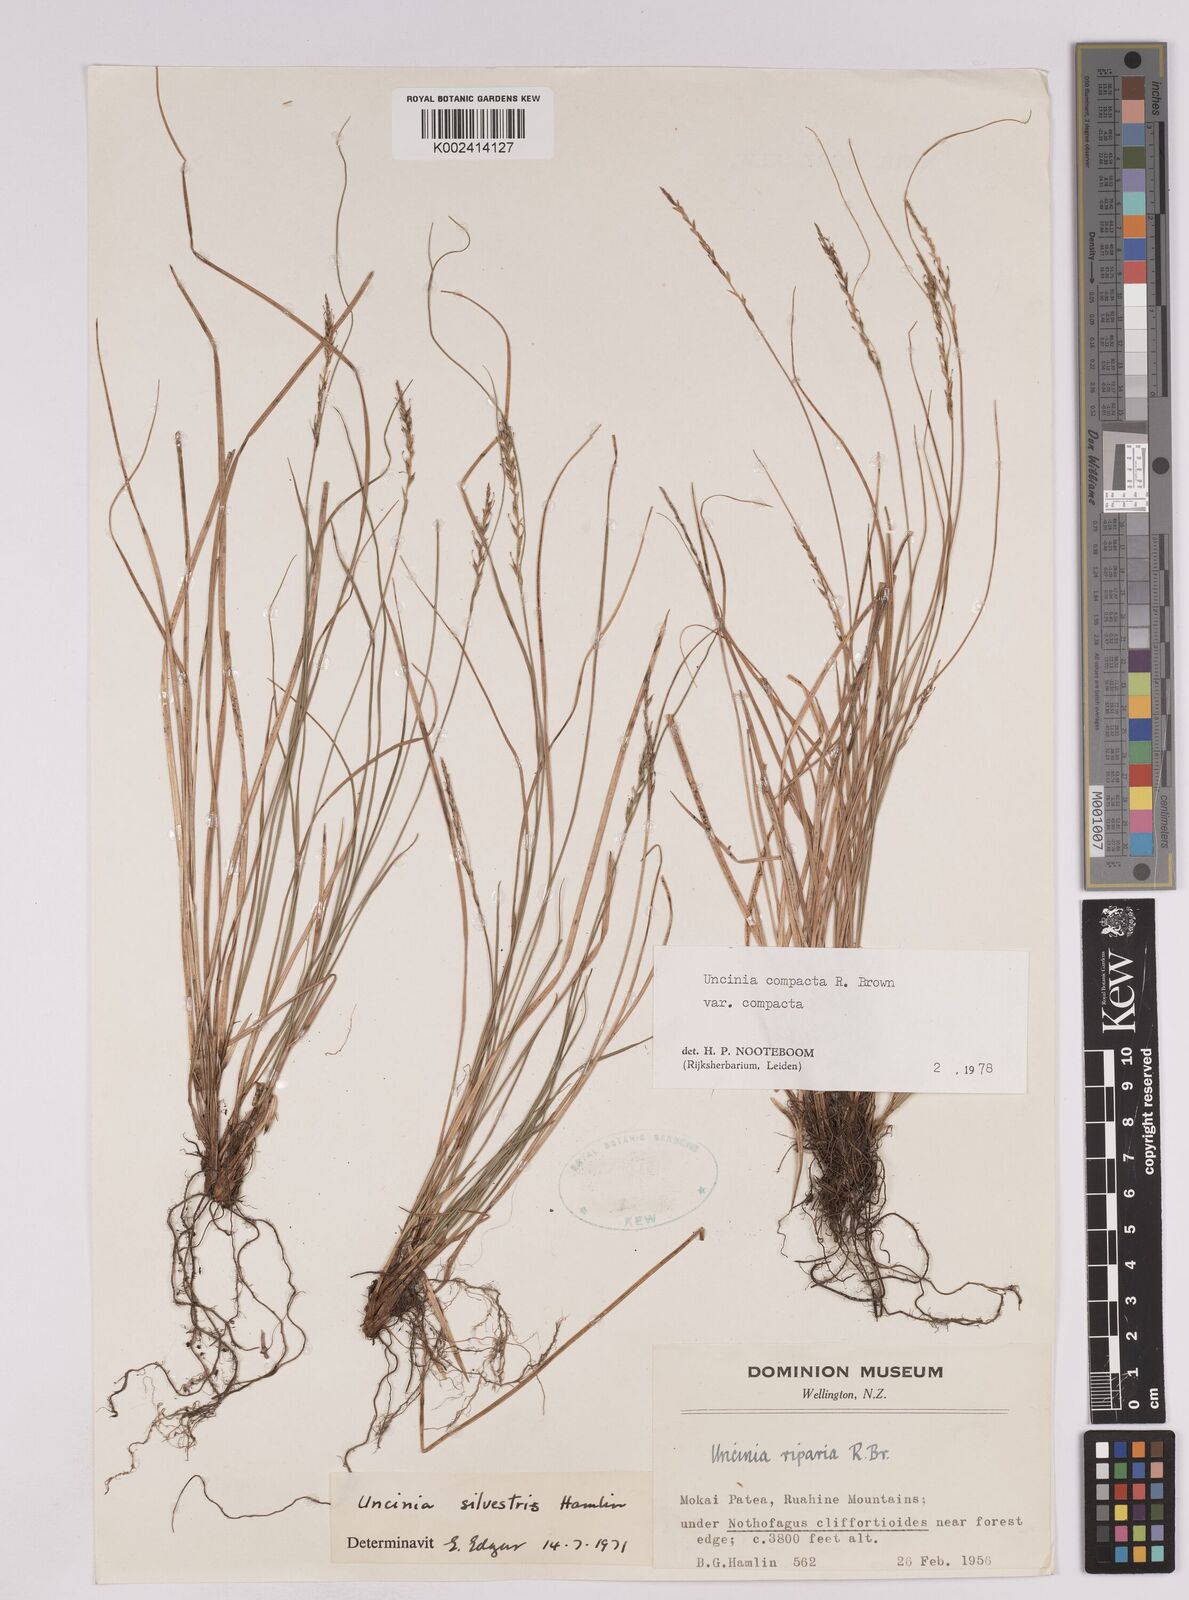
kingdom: Plantae
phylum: Tracheophyta
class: Liliopsida
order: Poales
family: Cyperaceae
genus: Carex
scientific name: Carex austrocompacta
